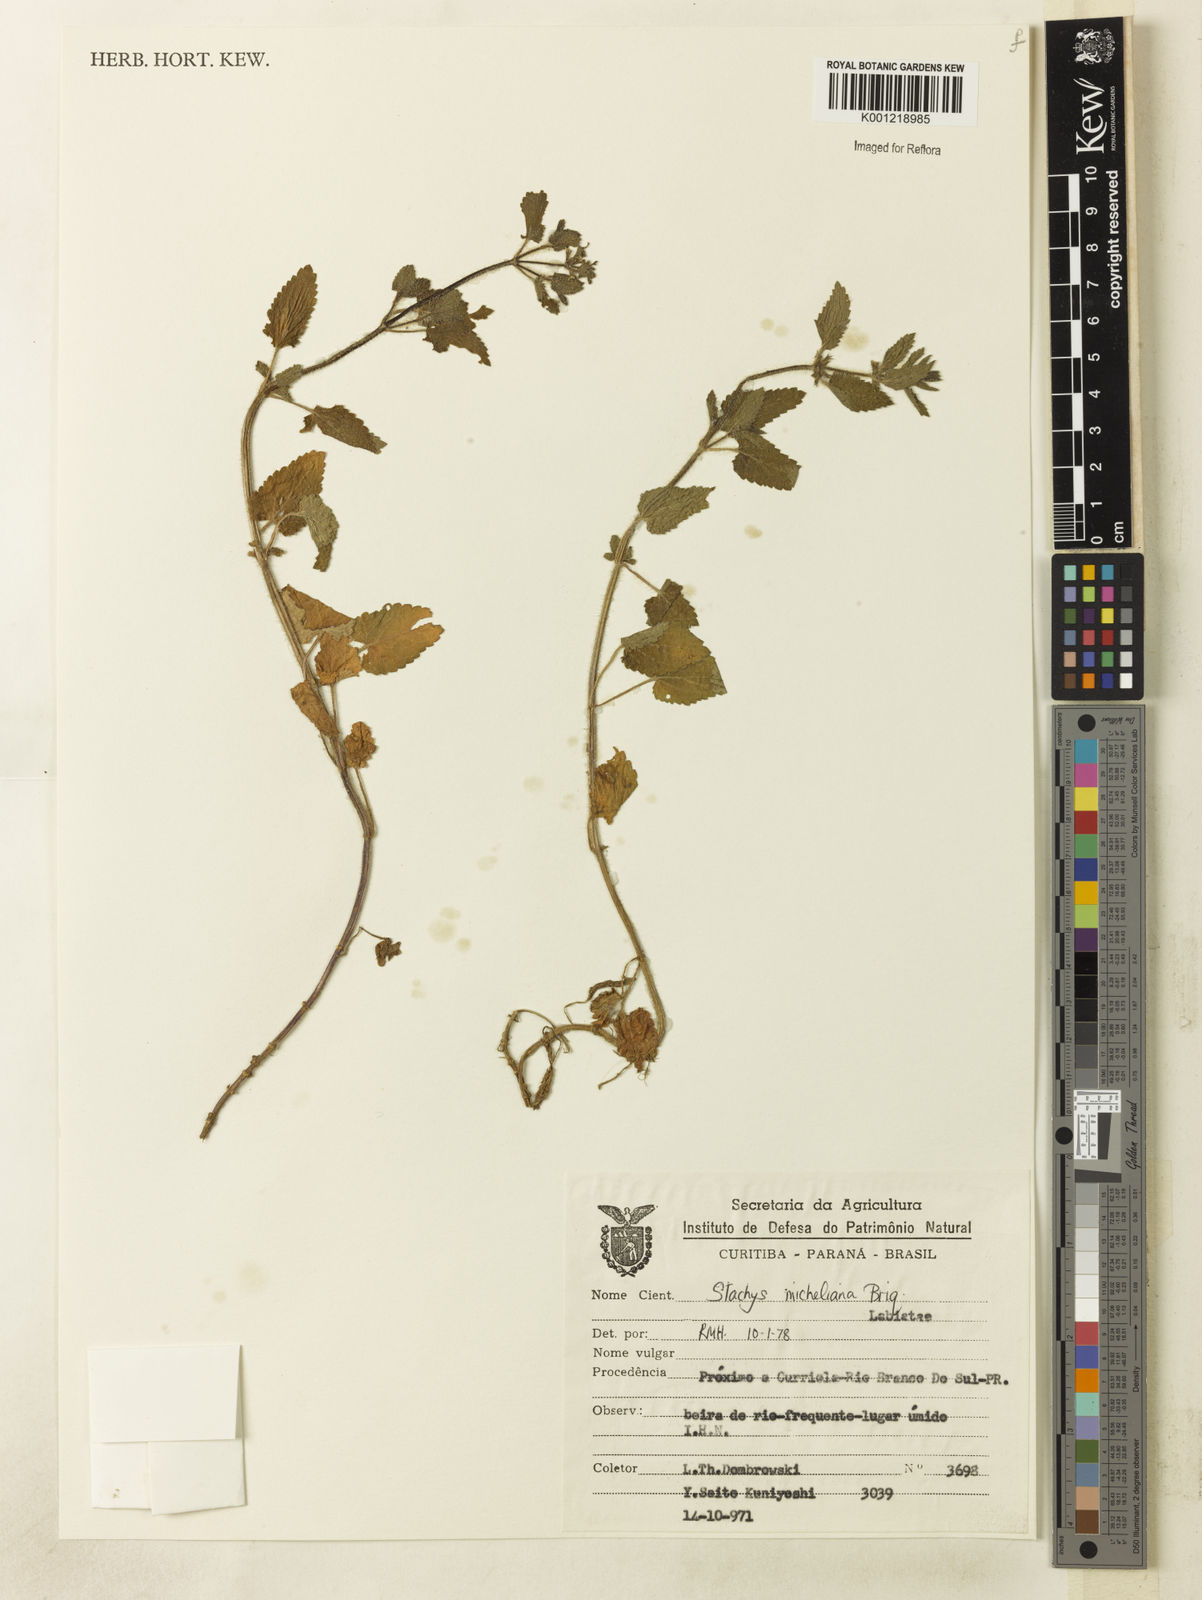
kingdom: Plantae
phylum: Tracheophyta
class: Magnoliopsida
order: Lamiales
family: Lamiaceae
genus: Stachys
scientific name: Stachys
